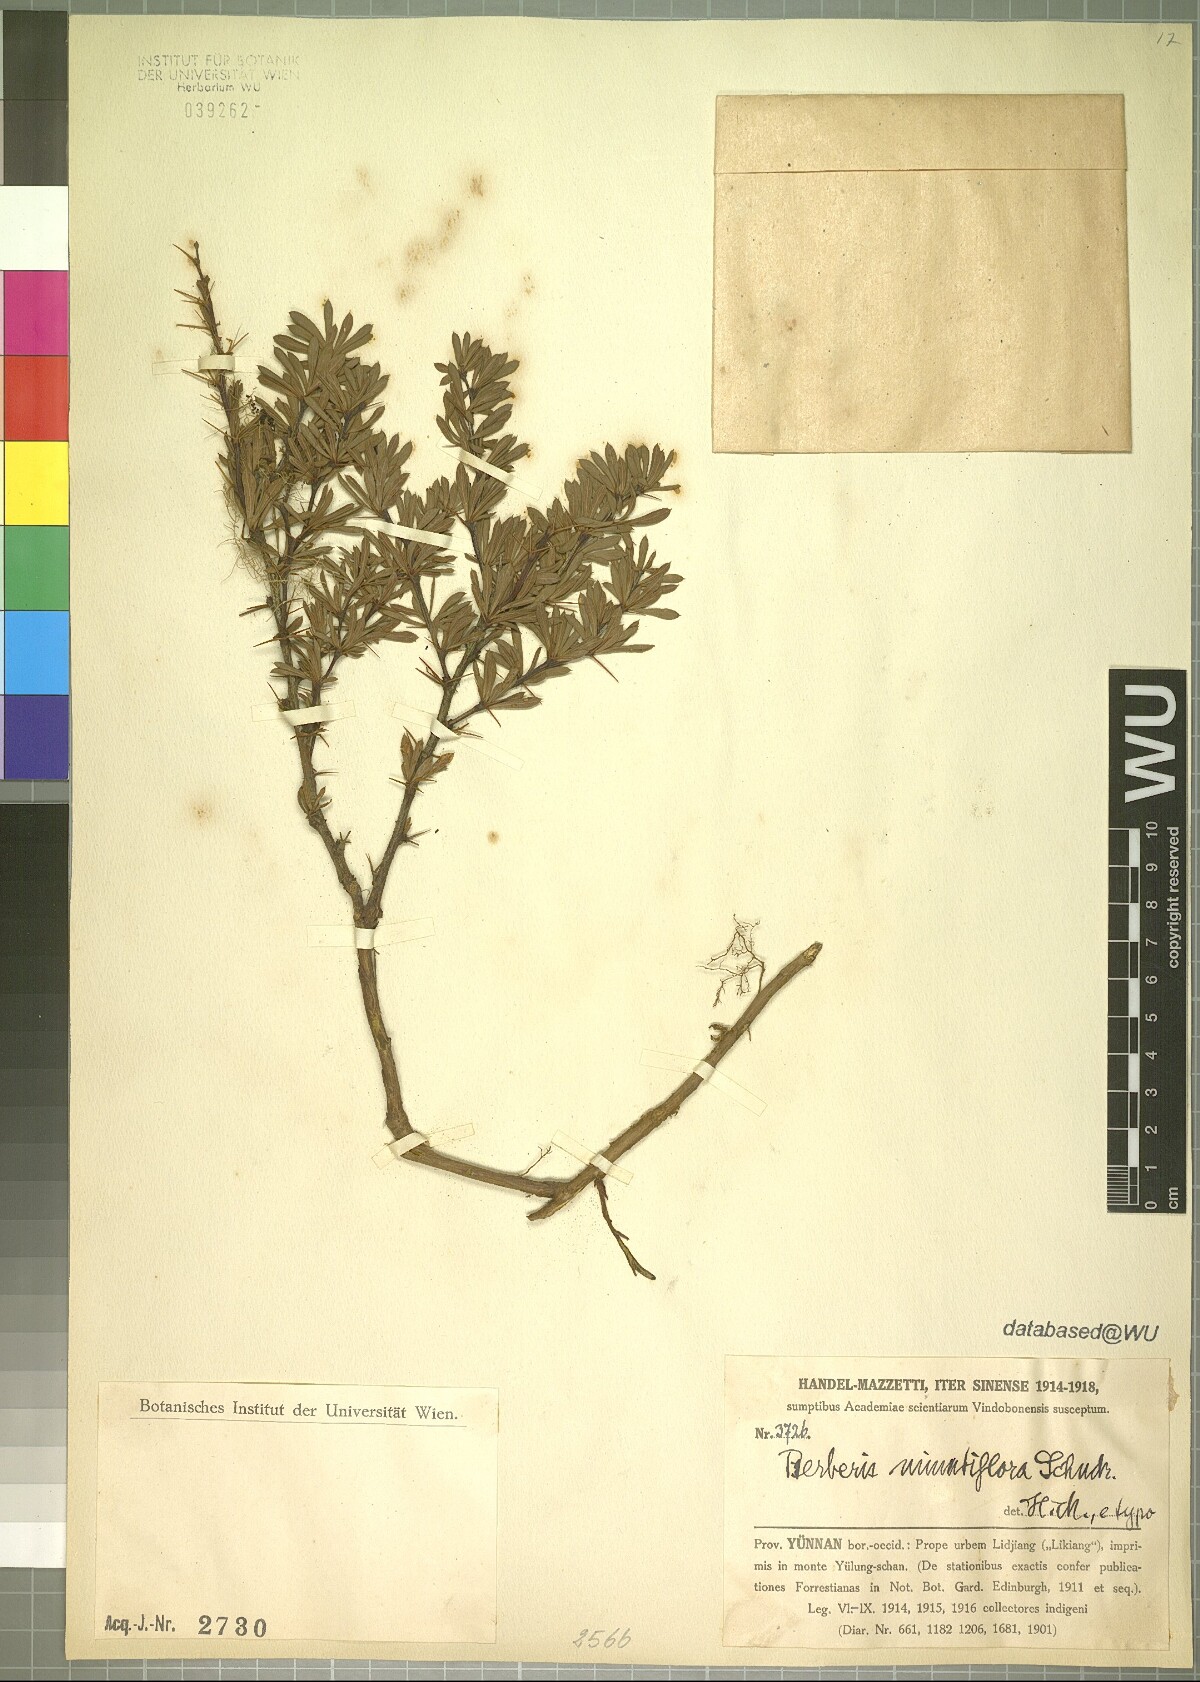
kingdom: Plantae
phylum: Tracheophyta
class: Magnoliopsida
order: Ranunculales
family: Berberidaceae
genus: Berberis
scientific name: Berberis minutiflora
